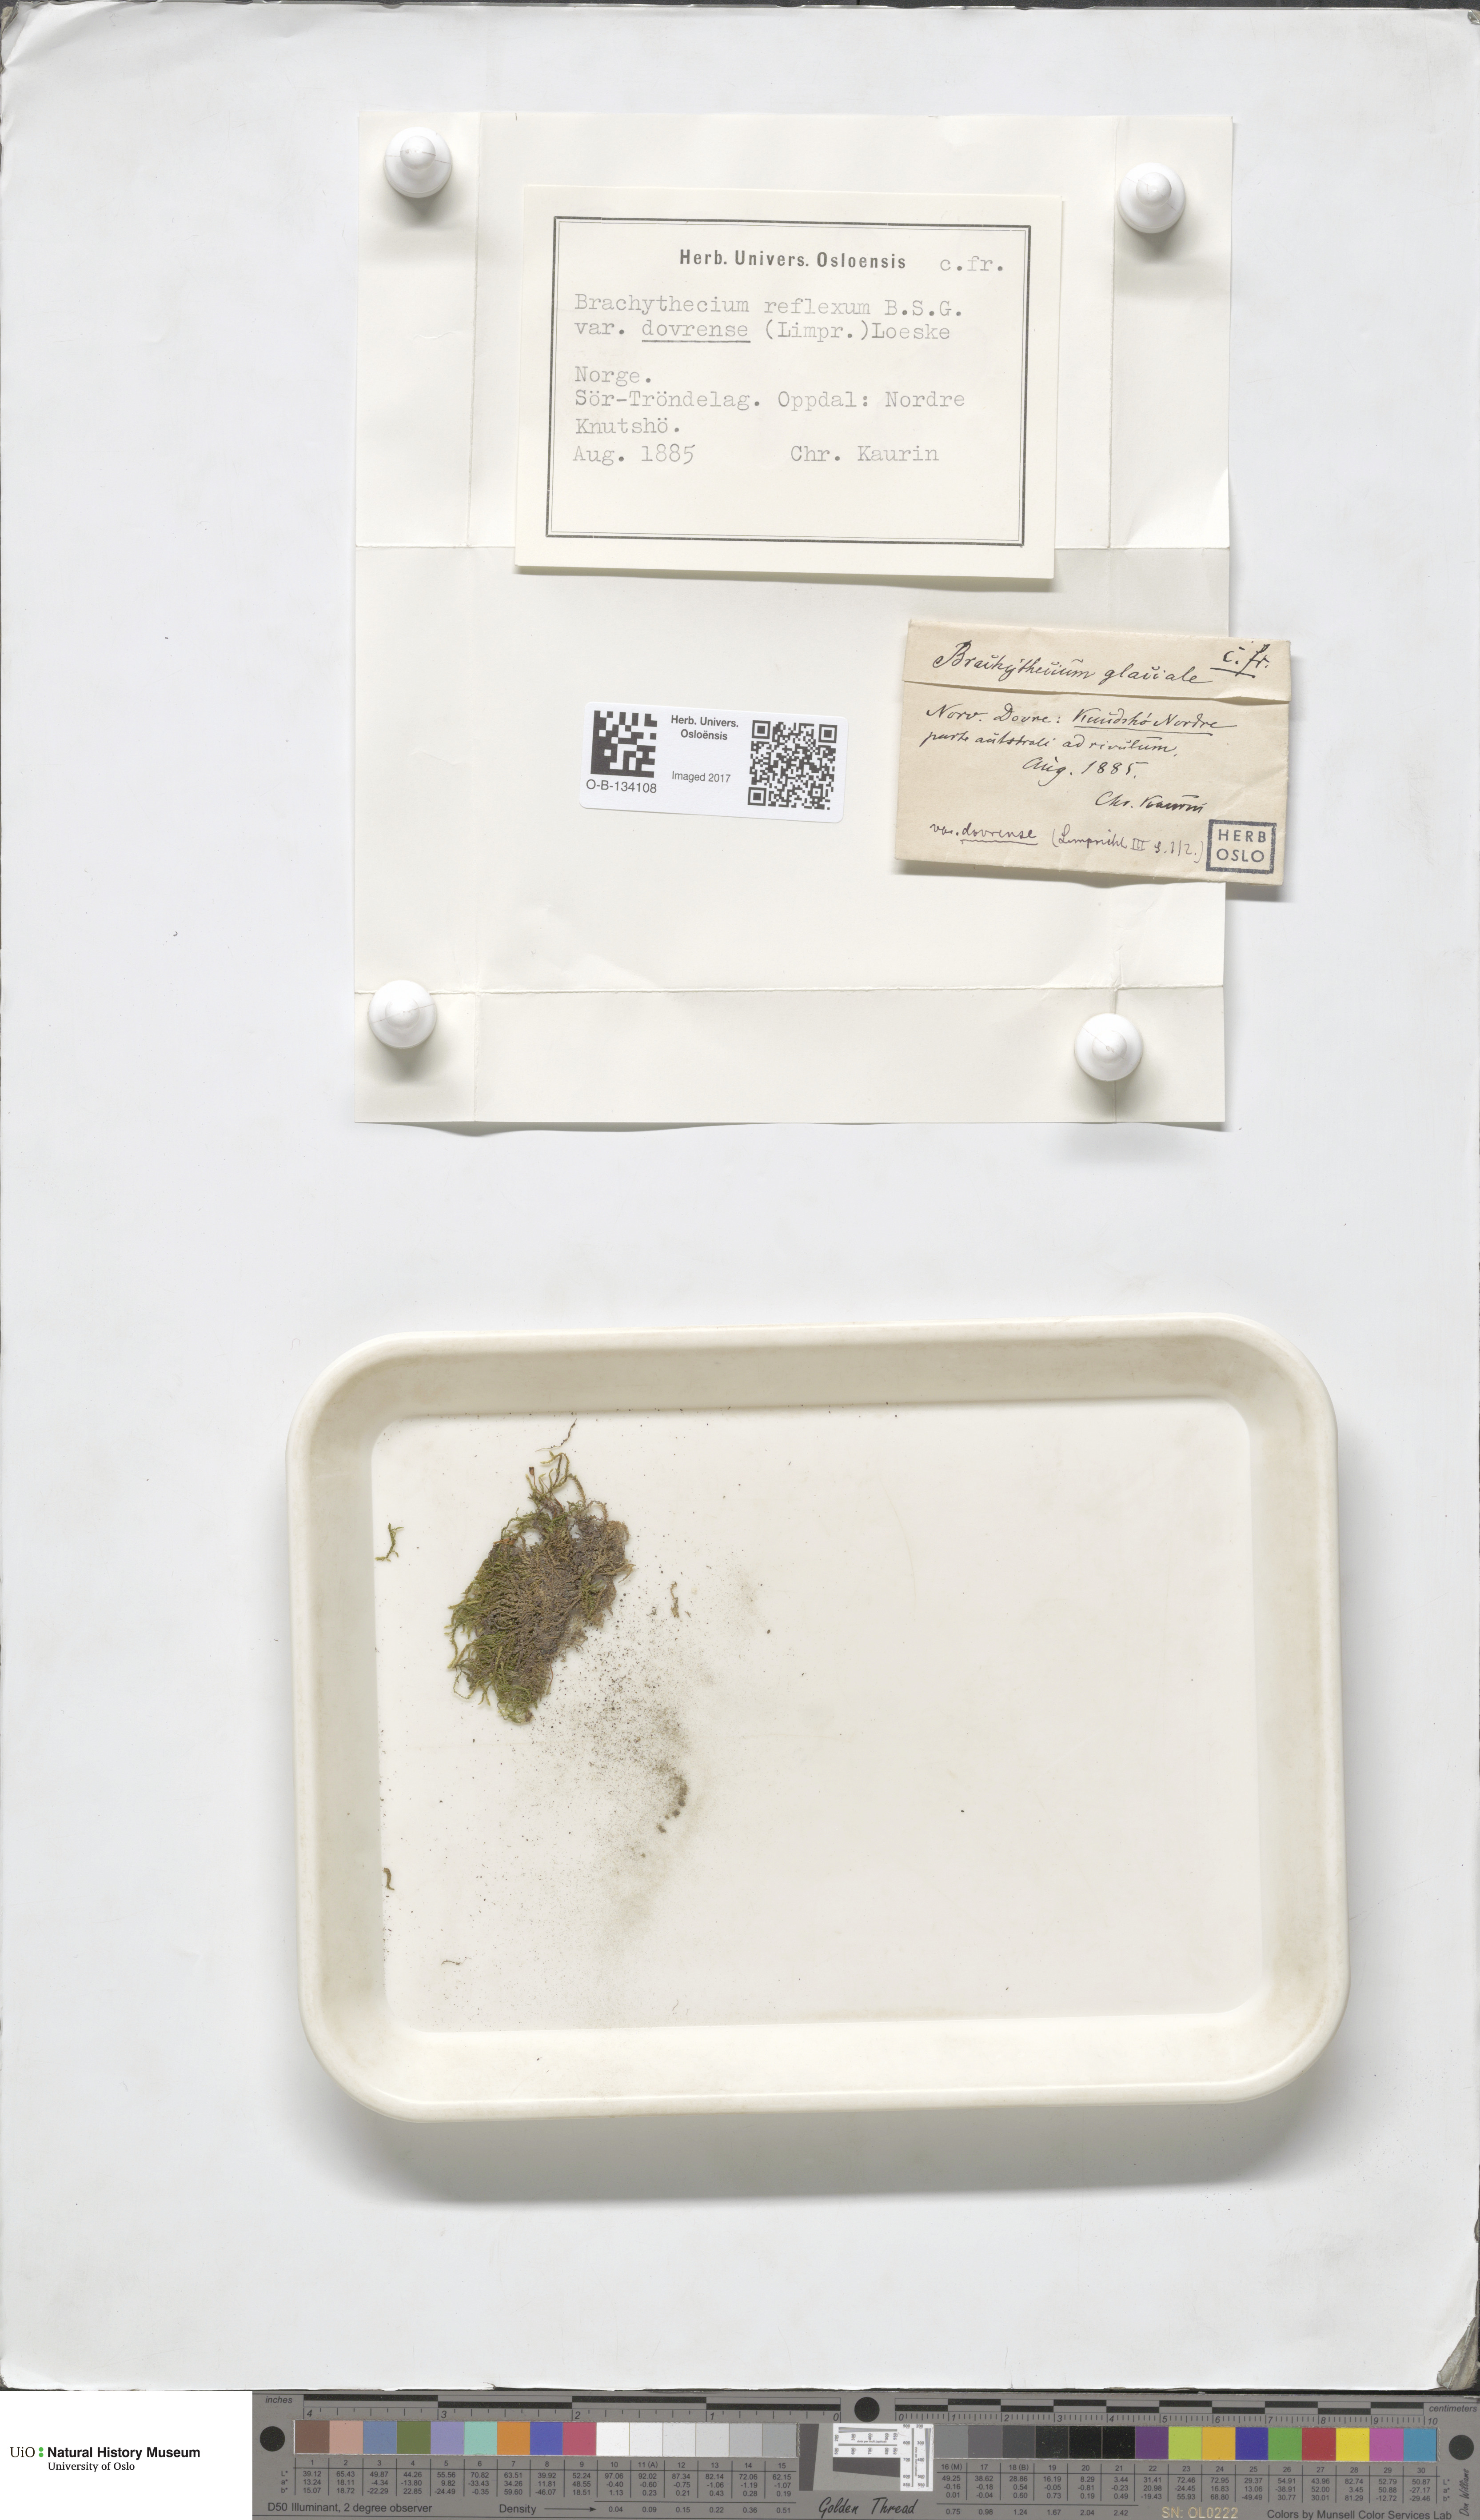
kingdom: Plantae
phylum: Bryophyta
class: Bryopsida
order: Hypnales
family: Brachytheciaceae
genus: Sciuro-hypnum
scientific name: Sciuro-hypnum reflexum
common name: Reflexed feather-moss
